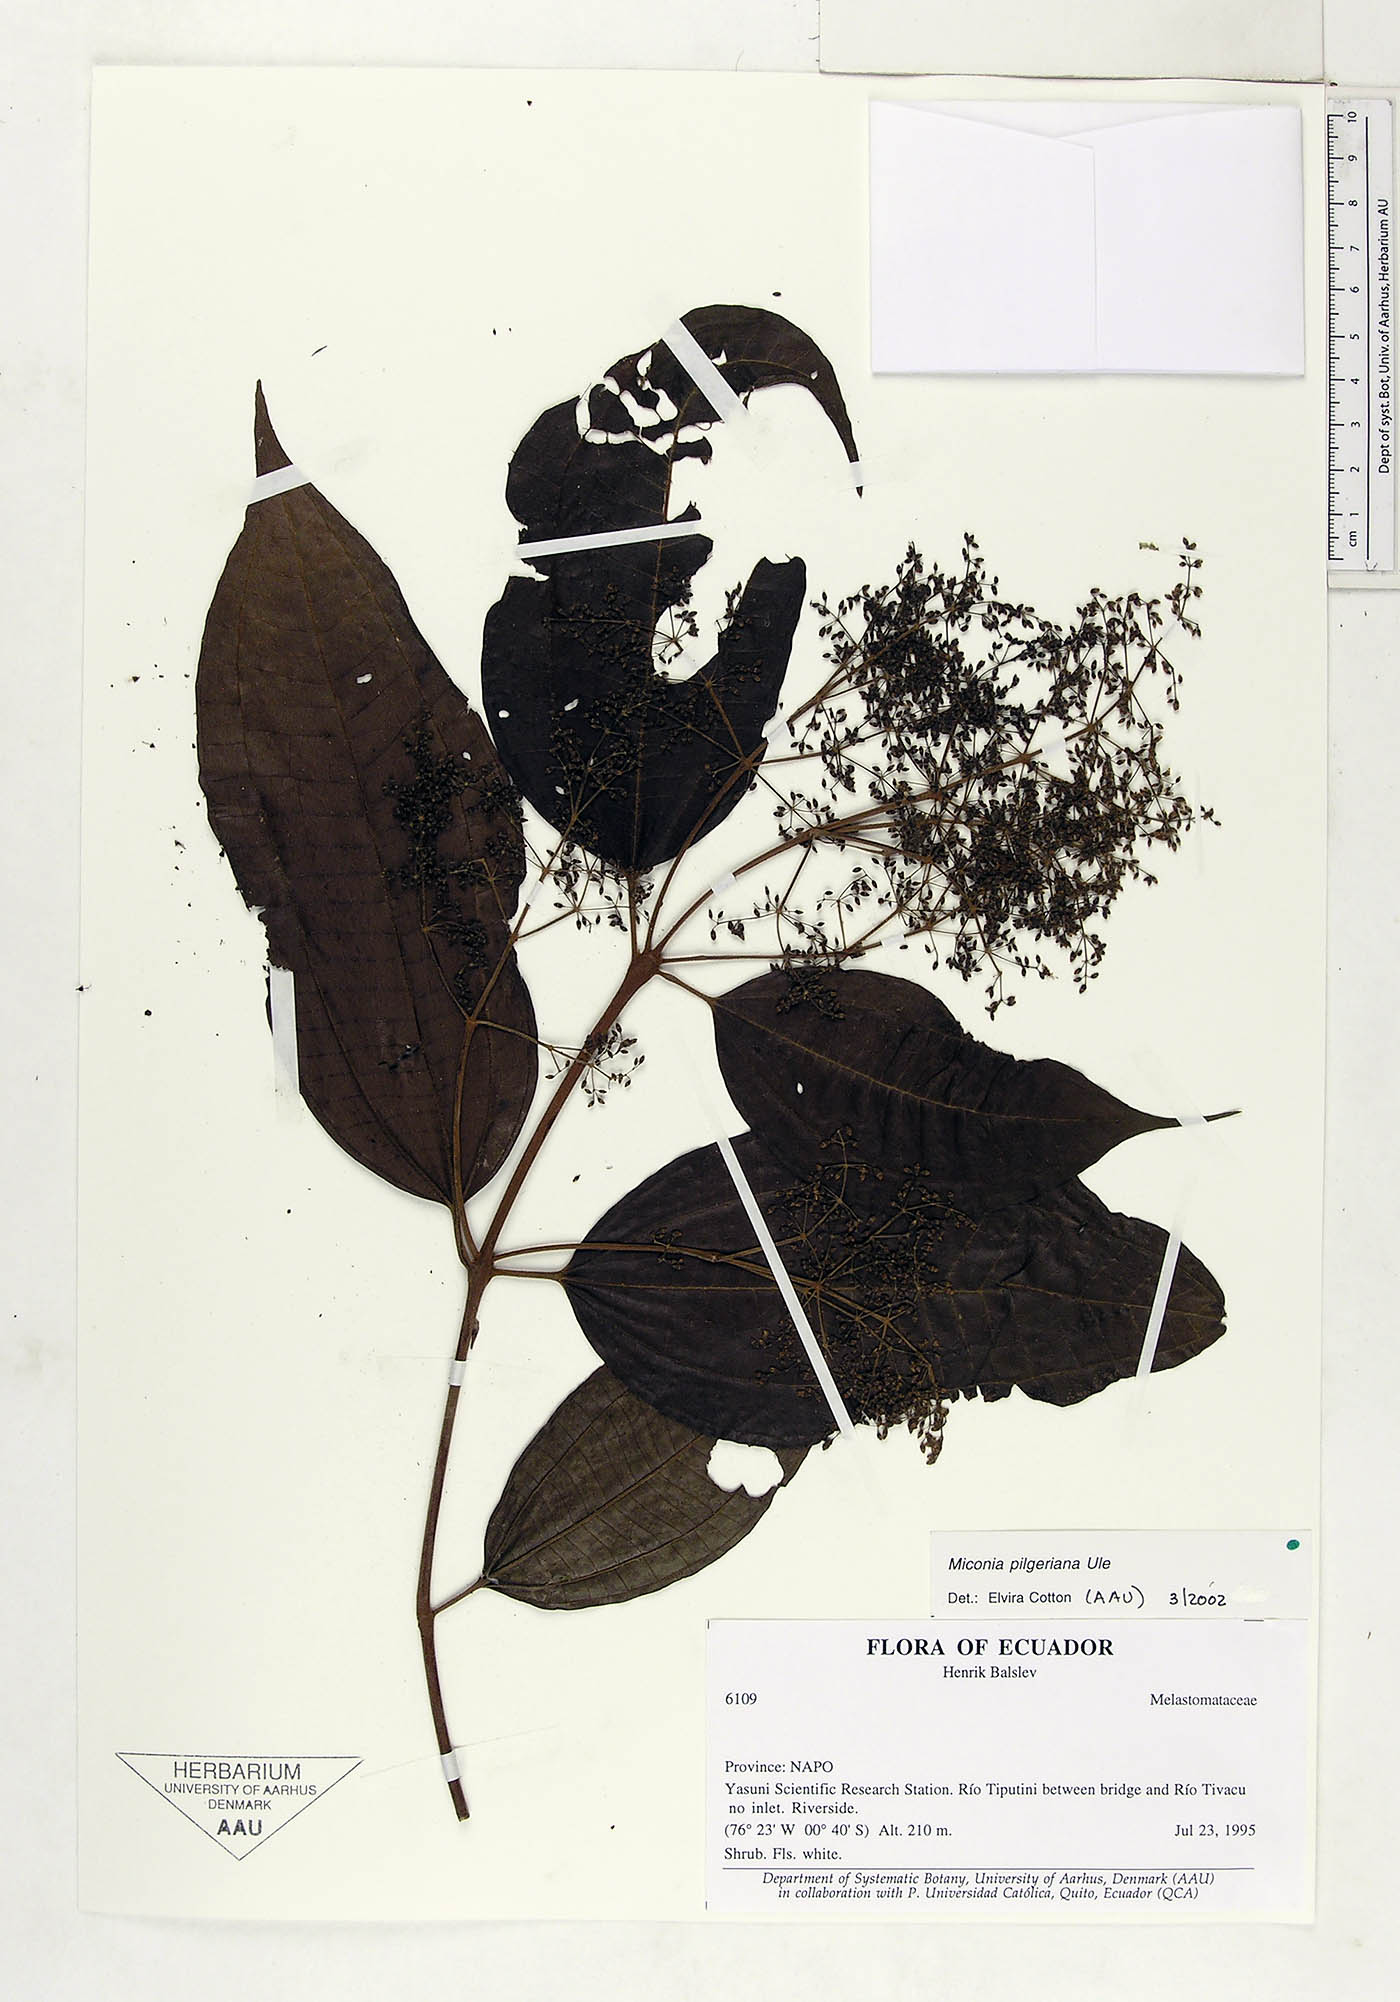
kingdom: Plantae
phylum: Tracheophyta
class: Magnoliopsida
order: Myrtales
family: Melastomataceae
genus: Miconia
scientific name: Miconia dolichorrhyncha
